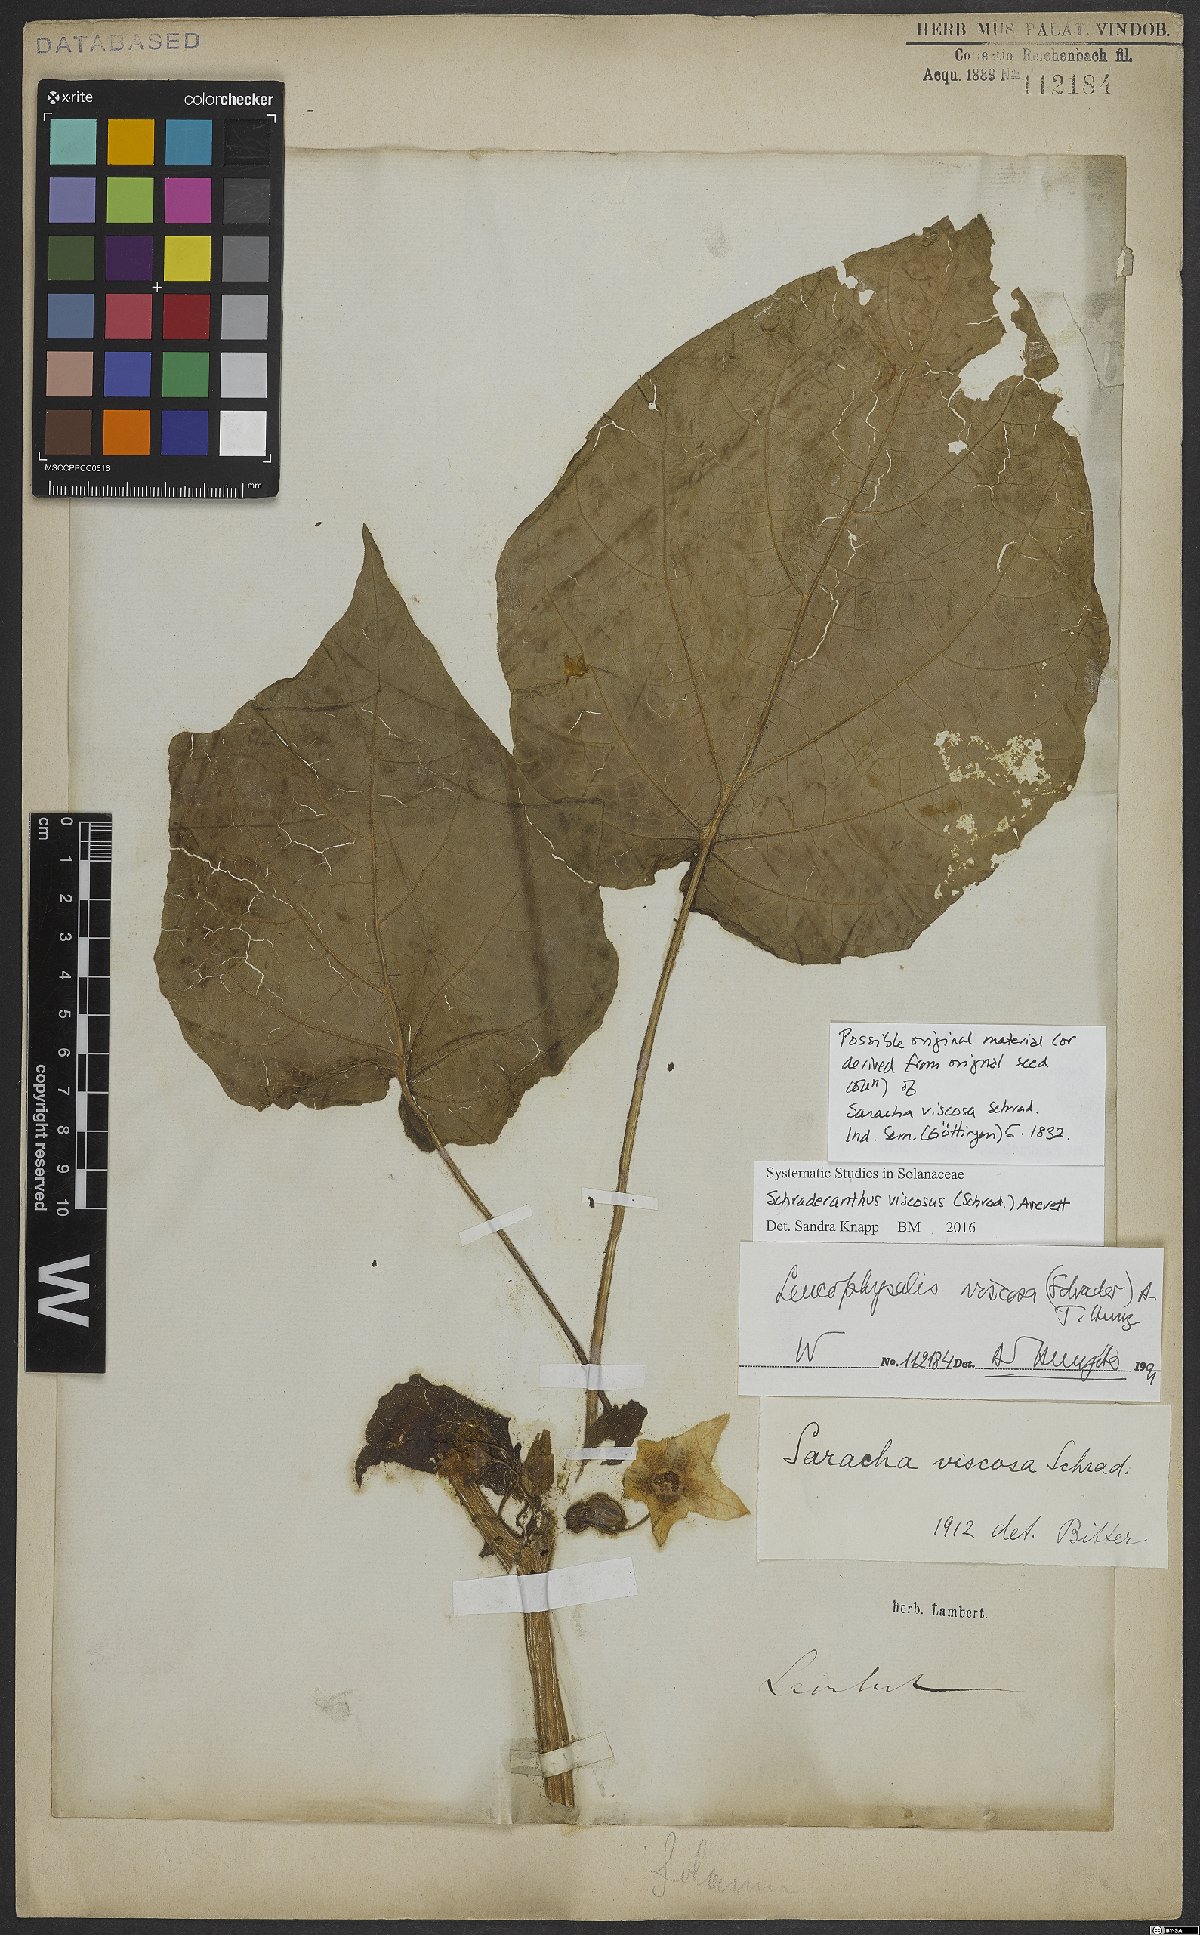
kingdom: Plantae
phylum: Tracheophyta
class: Magnoliopsida
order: Solanales
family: Solanaceae
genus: Schraderanthus
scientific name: Schraderanthus viscosus
